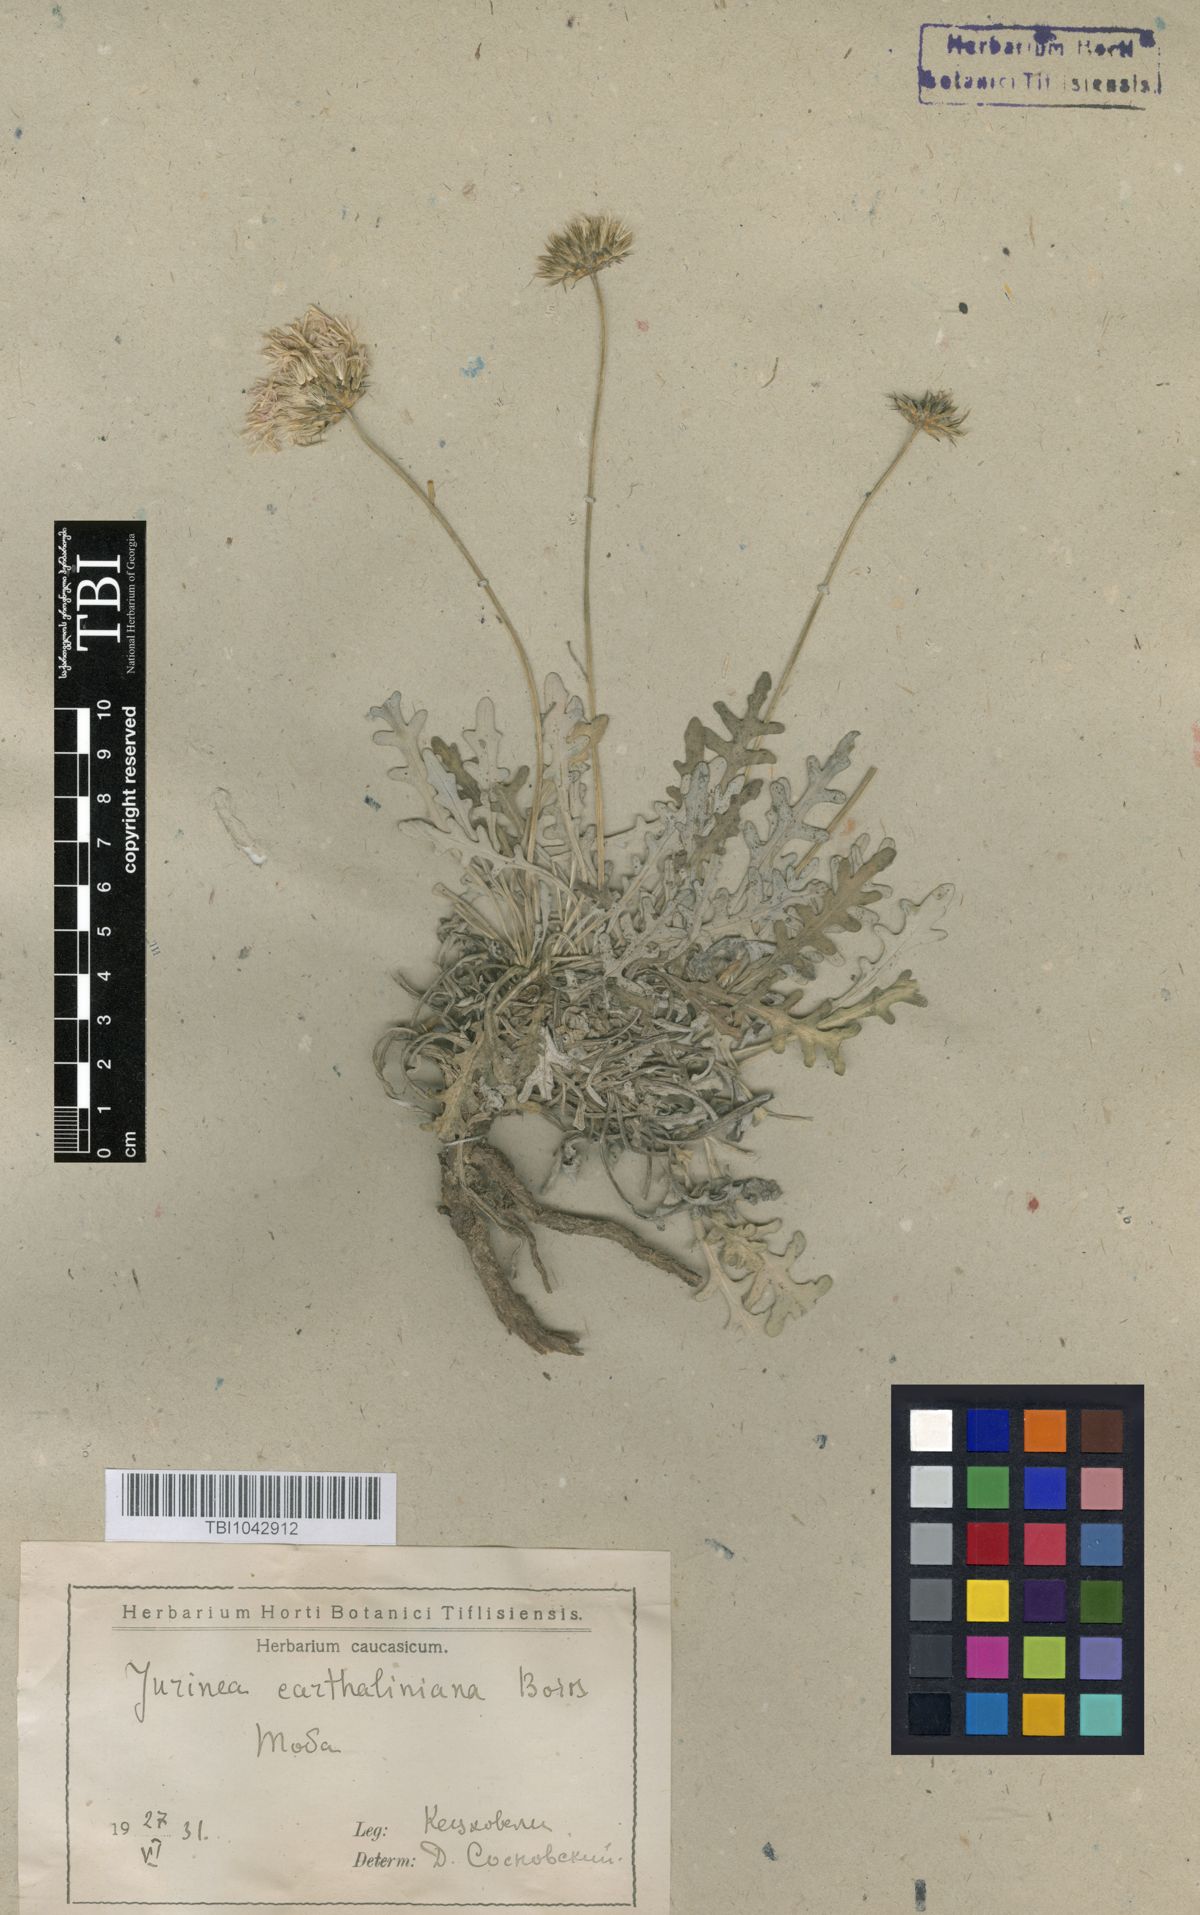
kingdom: Plantae
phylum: Tracheophyta
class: Magnoliopsida
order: Asterales
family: Asteraceae
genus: Jurinea
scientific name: Jurinea cartaliniana
